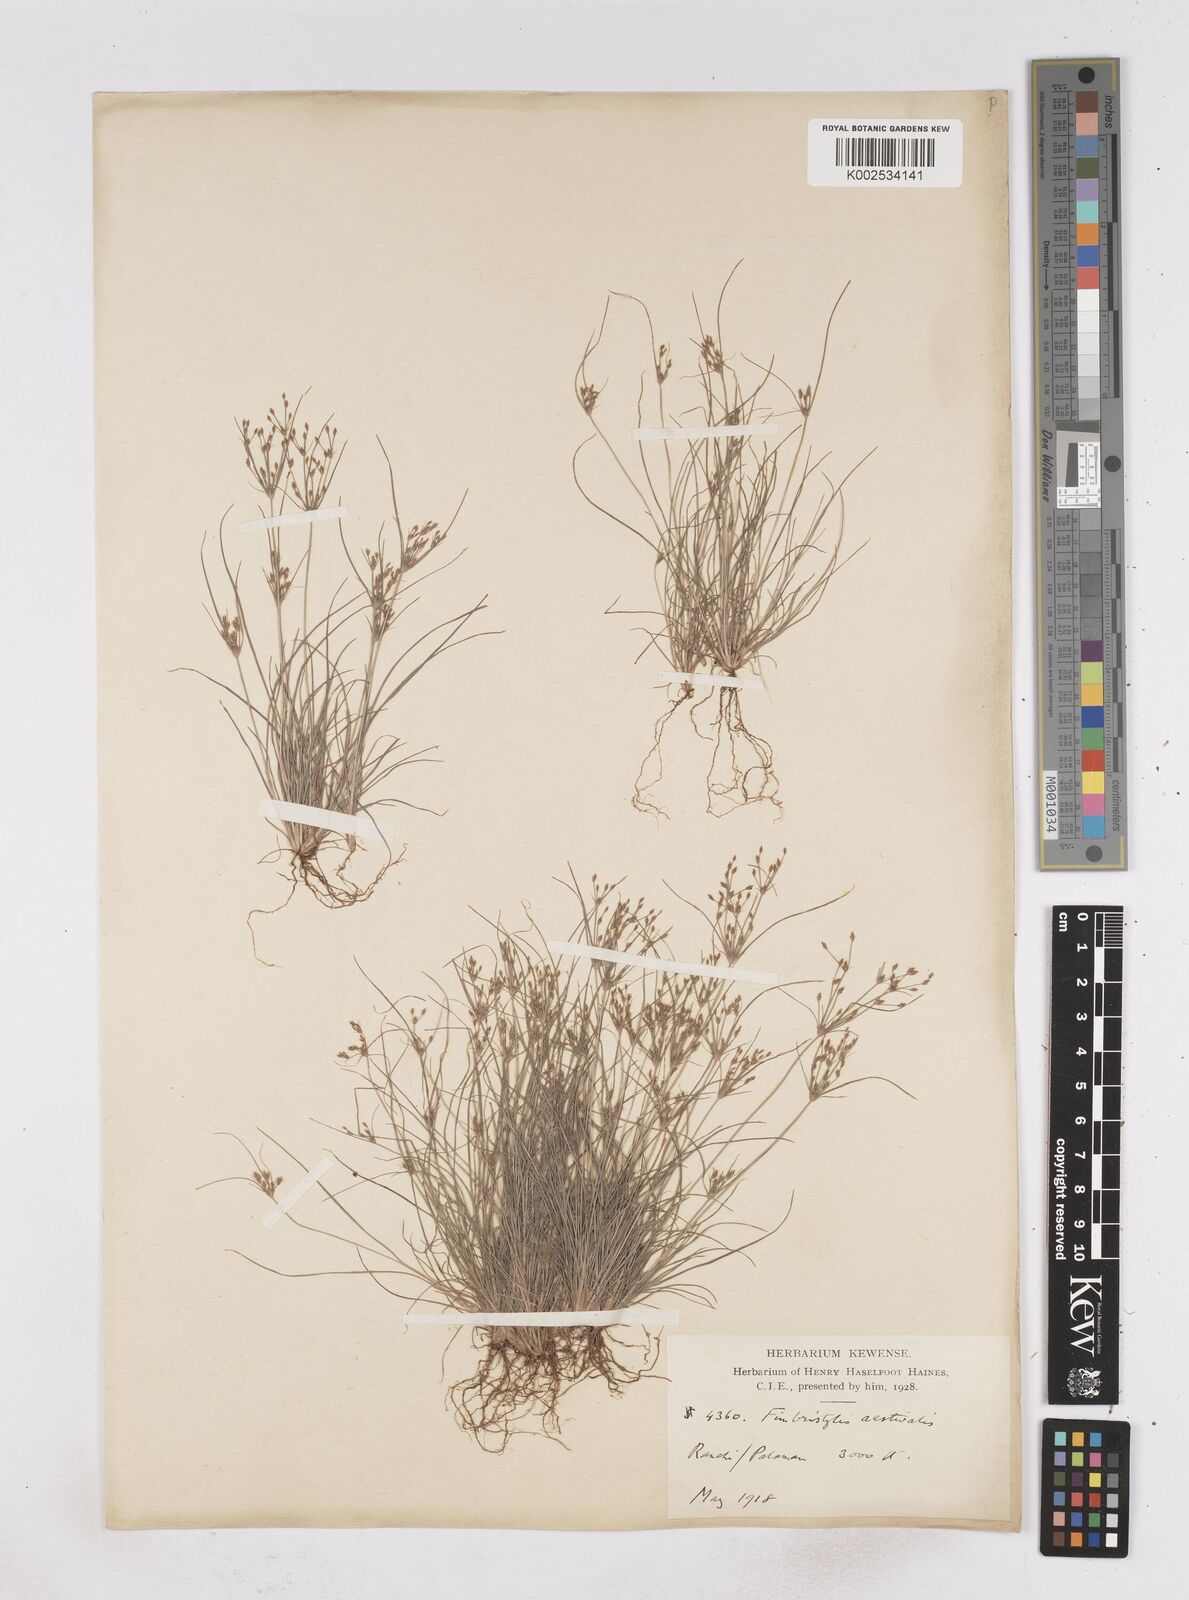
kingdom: Plantae
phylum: Tracheophyta
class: Liliopsida
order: Poales
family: Cyperaceae
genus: Fimbristylis
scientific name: Fimbristylis aestivalis
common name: Summer fimbry
